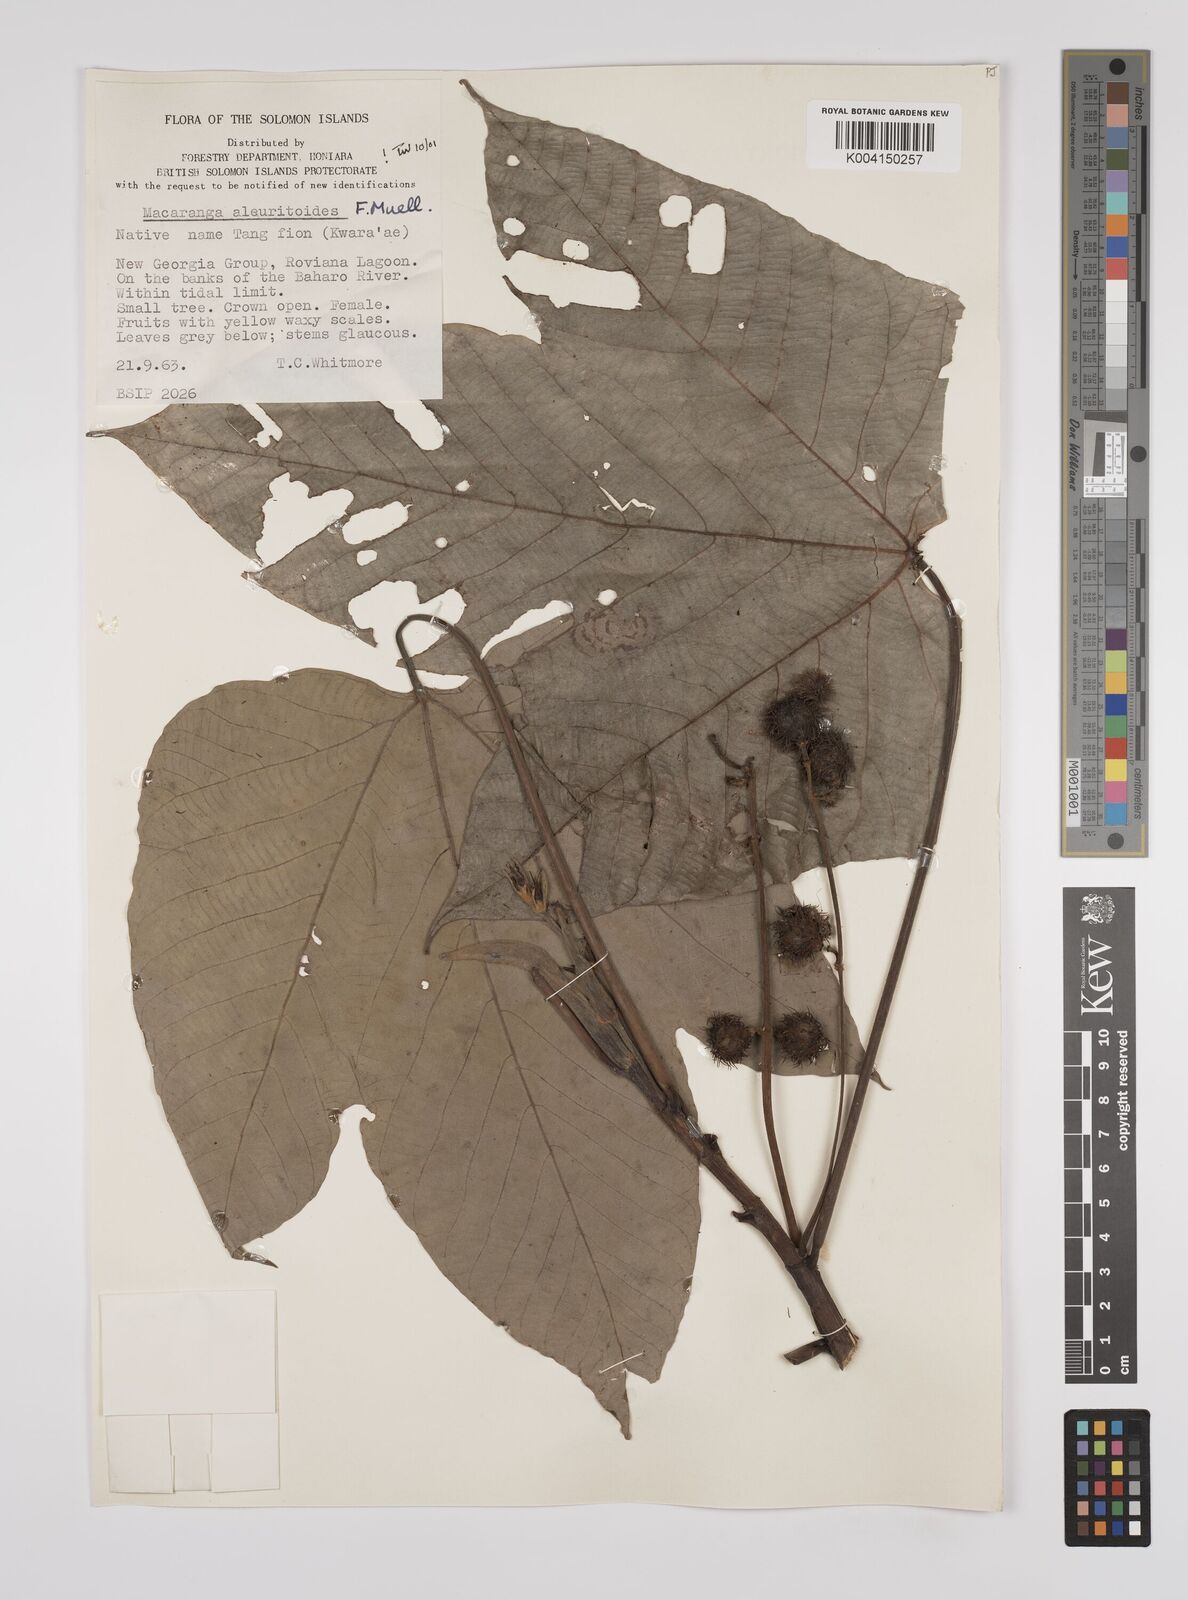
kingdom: Plantae
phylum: Tracheophyta
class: Magnoliopsida
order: Malpighiales
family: Euphorbiaceae
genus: Macaranga
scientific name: Macaranga aleuritoides
